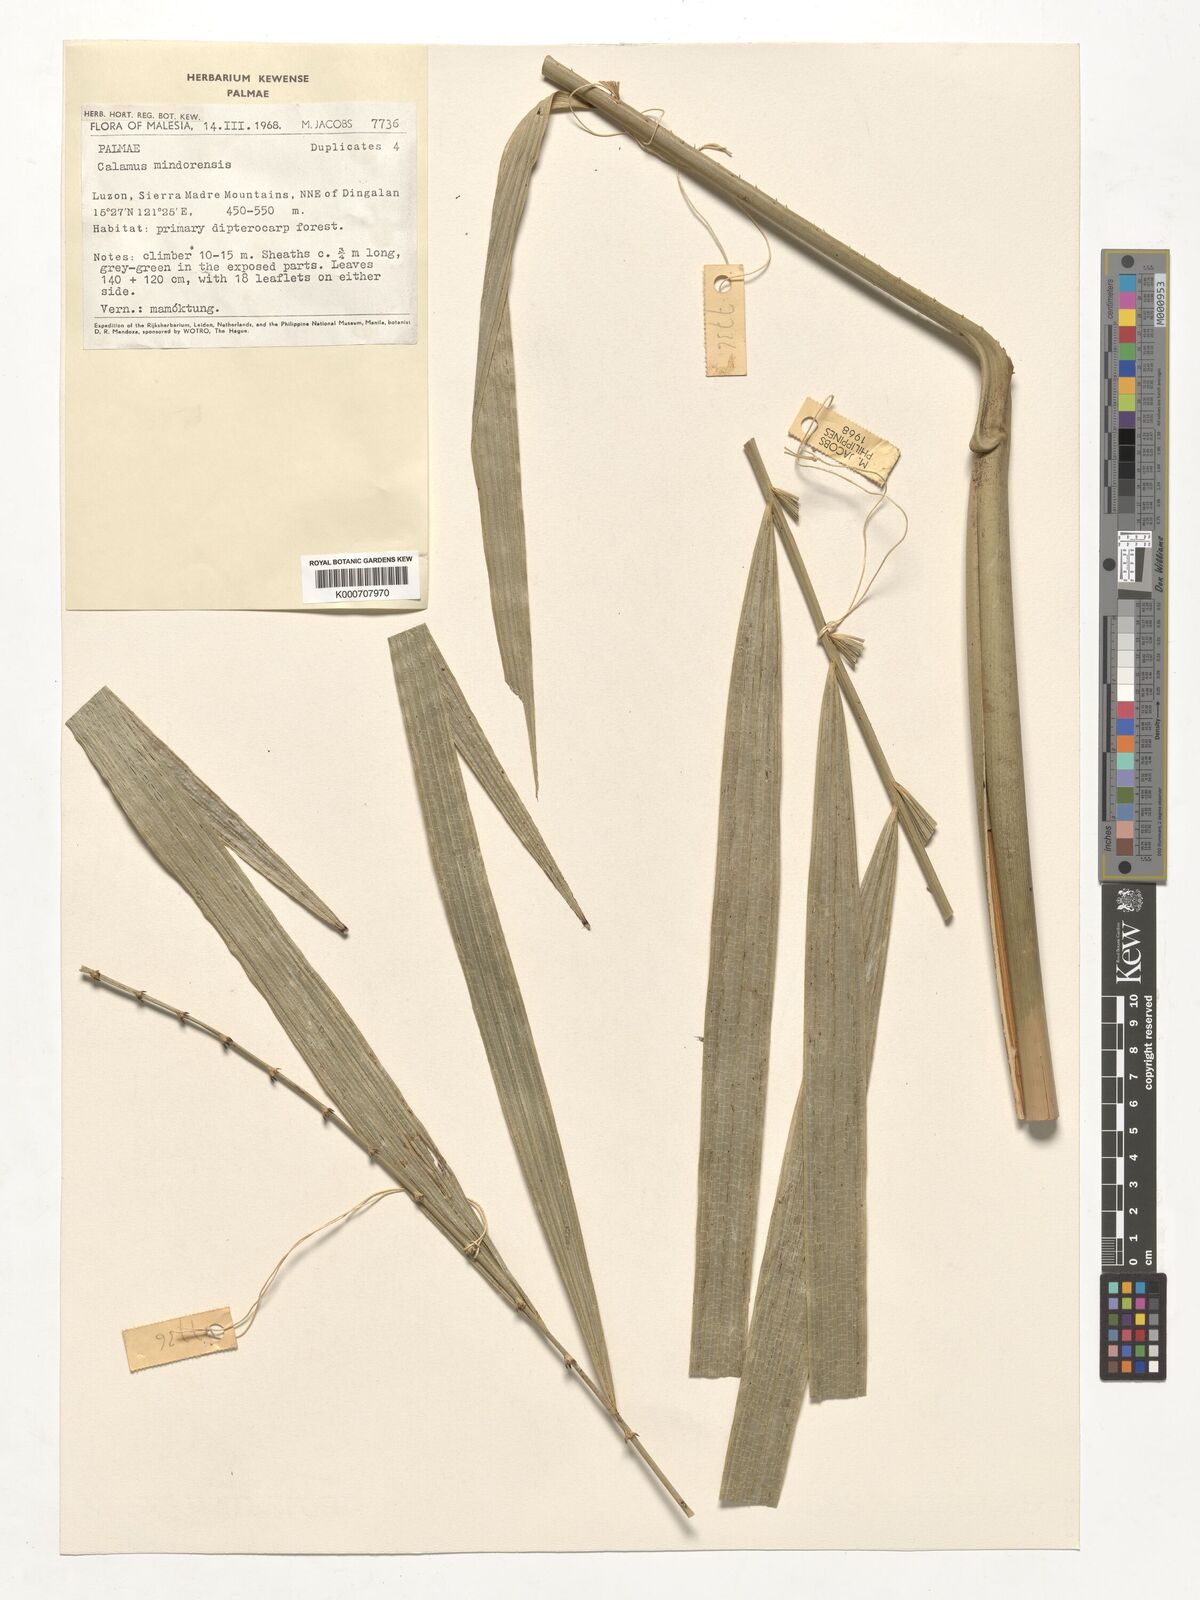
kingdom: Plantae
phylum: Tracheophyta
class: Liliopsida
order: Arecales
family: Arecaceae
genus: Calamus
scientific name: Calamus moseleyanus
